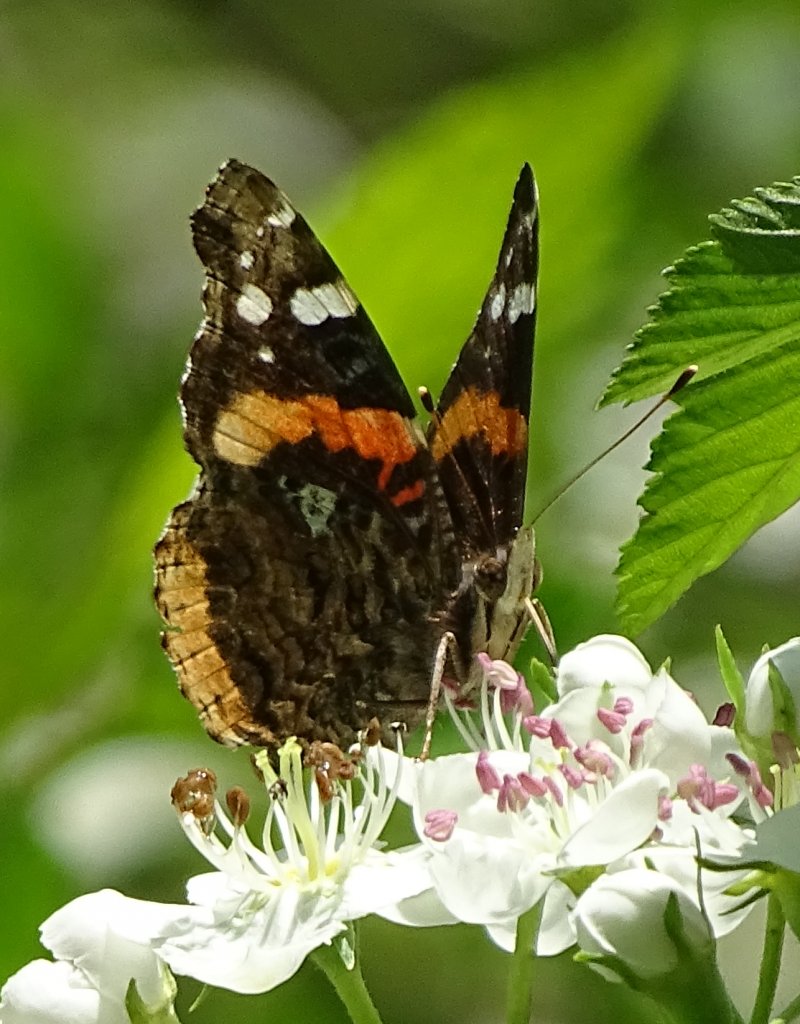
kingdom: Animalia
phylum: Arthropoda
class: Insecta
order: Lepidoptera
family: Nymphalidae
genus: Vanessa
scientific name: Vanessa atalanta
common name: Red Admiral
